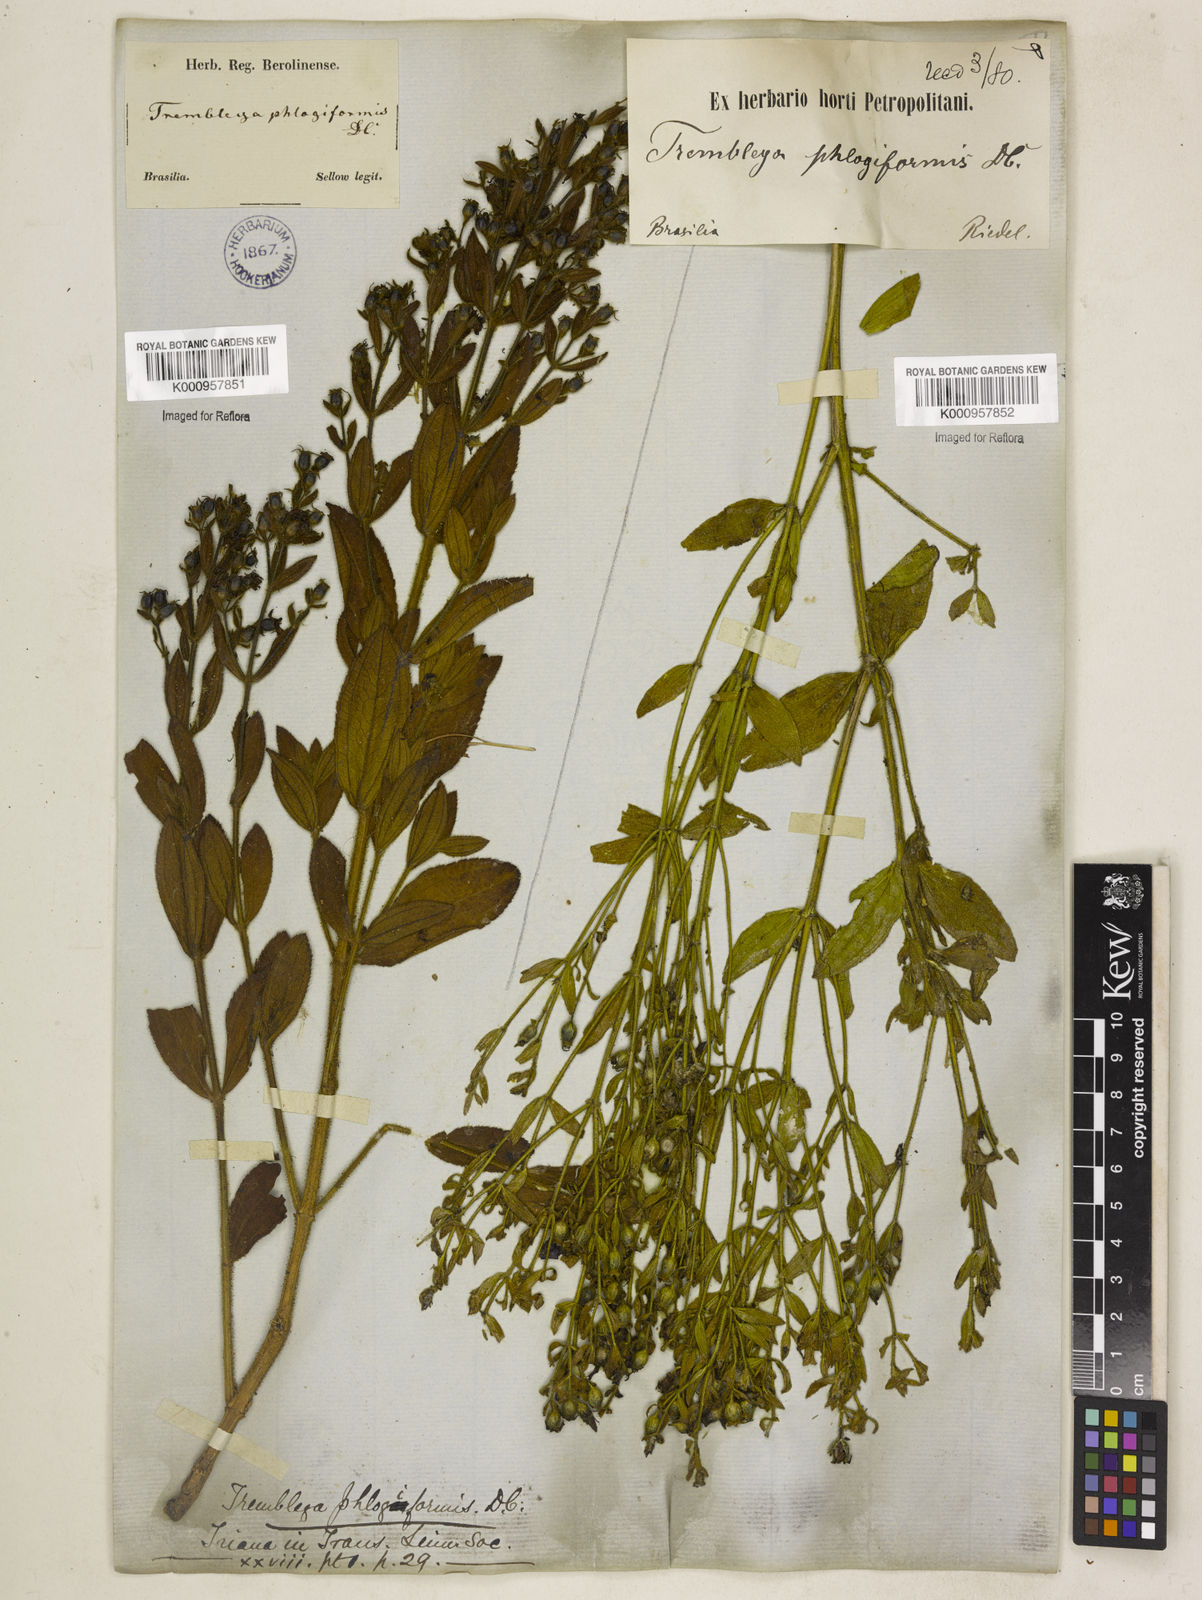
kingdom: Plantae
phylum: Tracheophyta
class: Magnoliopsida
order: Myrtales
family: Melastomataceae
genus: Microlicia
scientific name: Microlicia phlogiformis
